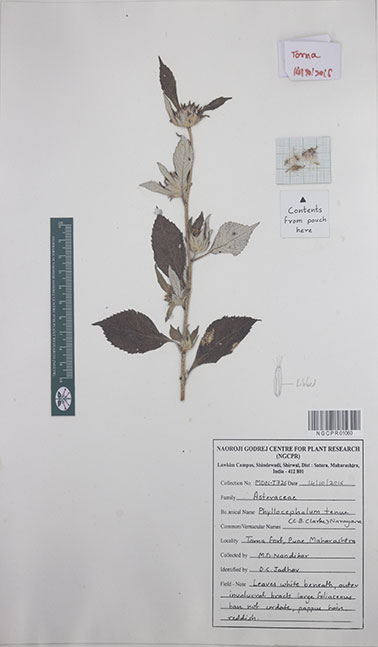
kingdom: Plantae
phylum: Tracheophyta
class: Magnoliopsida
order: Asterales
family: Asteraceae
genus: Phyllocephalum
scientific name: Phyllocephalum scabridum
